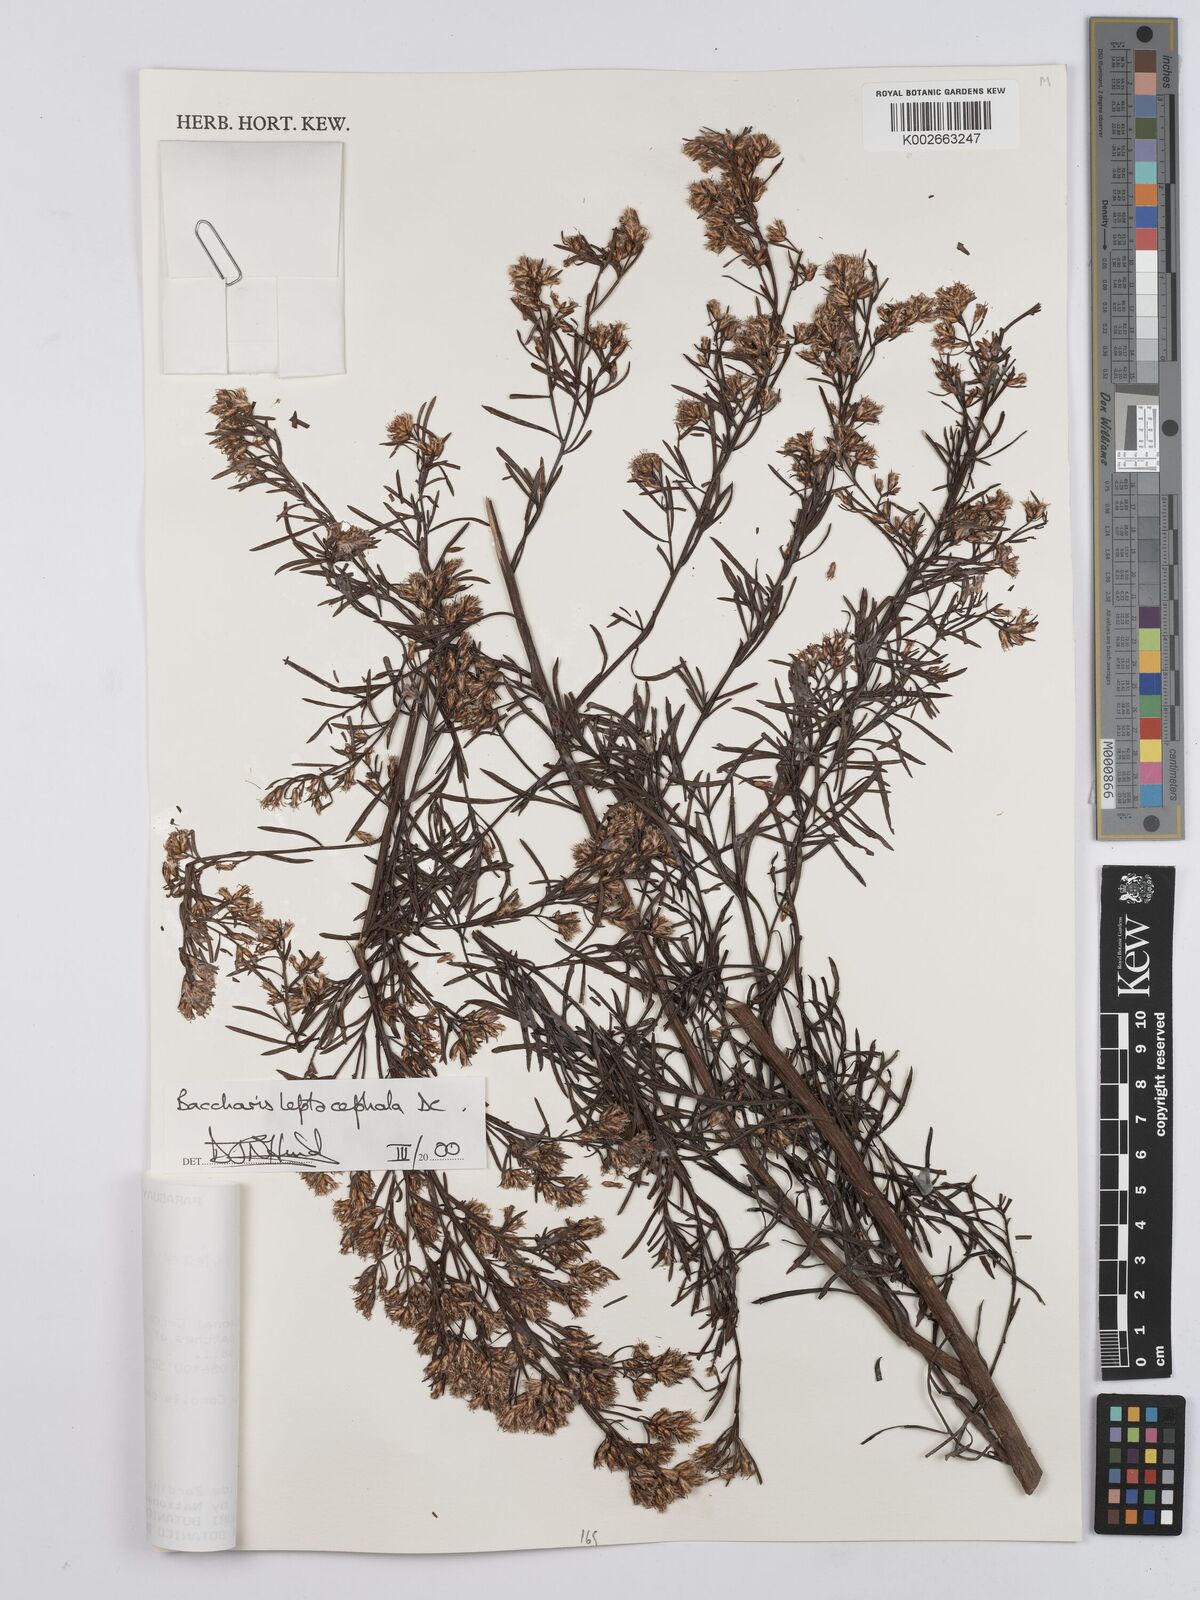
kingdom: Plantae
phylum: Tracheophyta
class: Magnoliopsida
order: Asterales
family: Asteraceae
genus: Baccharis
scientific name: Baccharis rufescens
